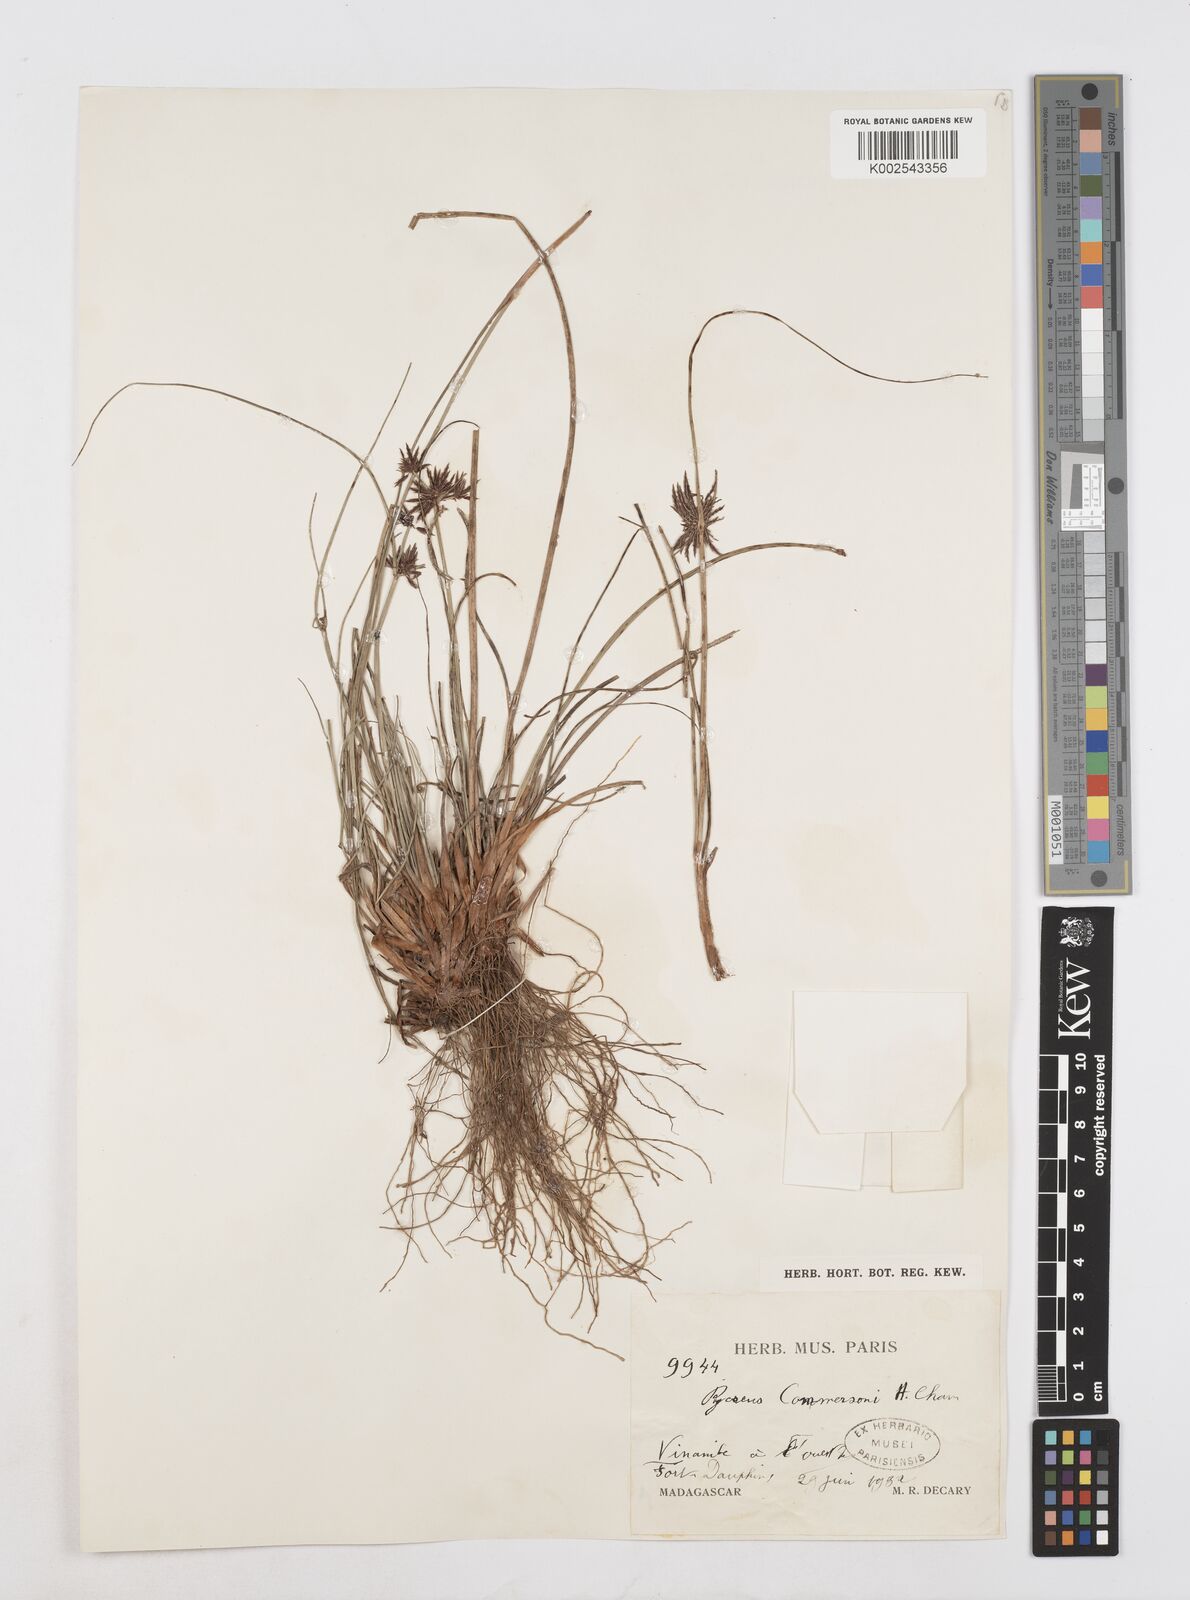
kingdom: Plantae
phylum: Tracheophyta
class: Liliopsida
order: Poales
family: Cyperaceae
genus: Cyperus
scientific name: Cyperus rhizomatosus
